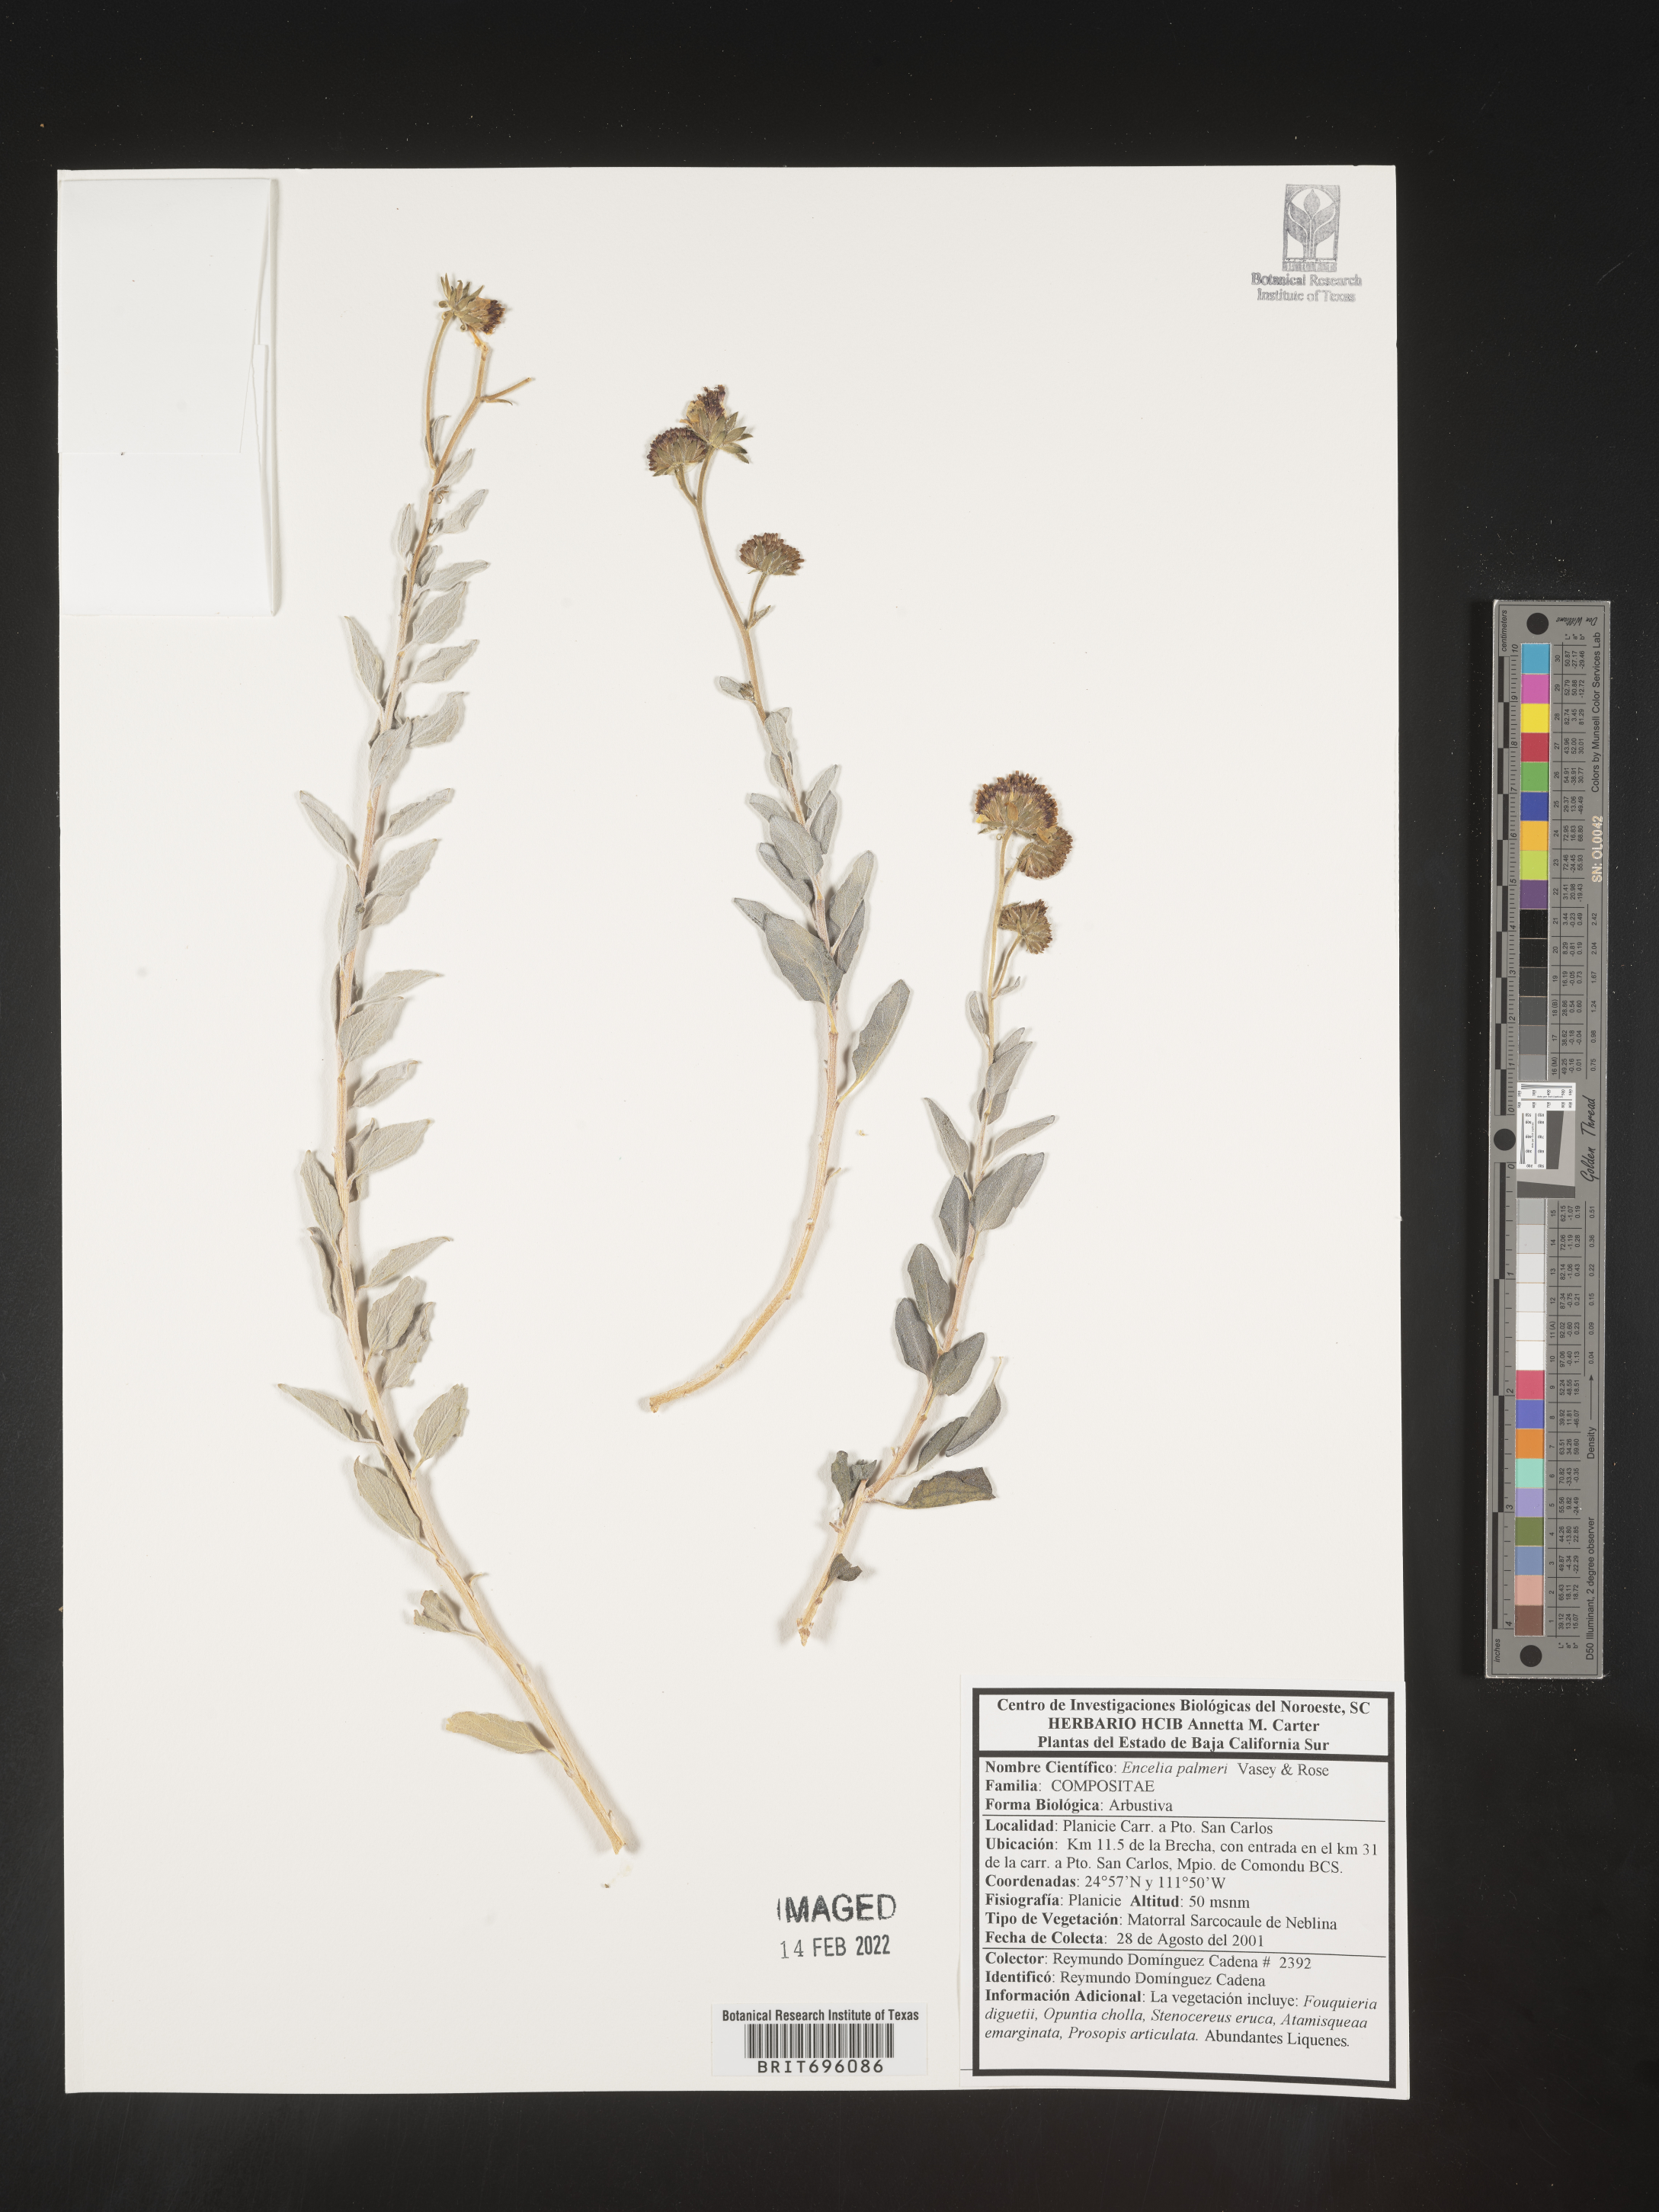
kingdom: Plantae
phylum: Tracheophyta
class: Magnoliopsida
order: Asterales
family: Asteraceae
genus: Encelia
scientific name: Encelia
